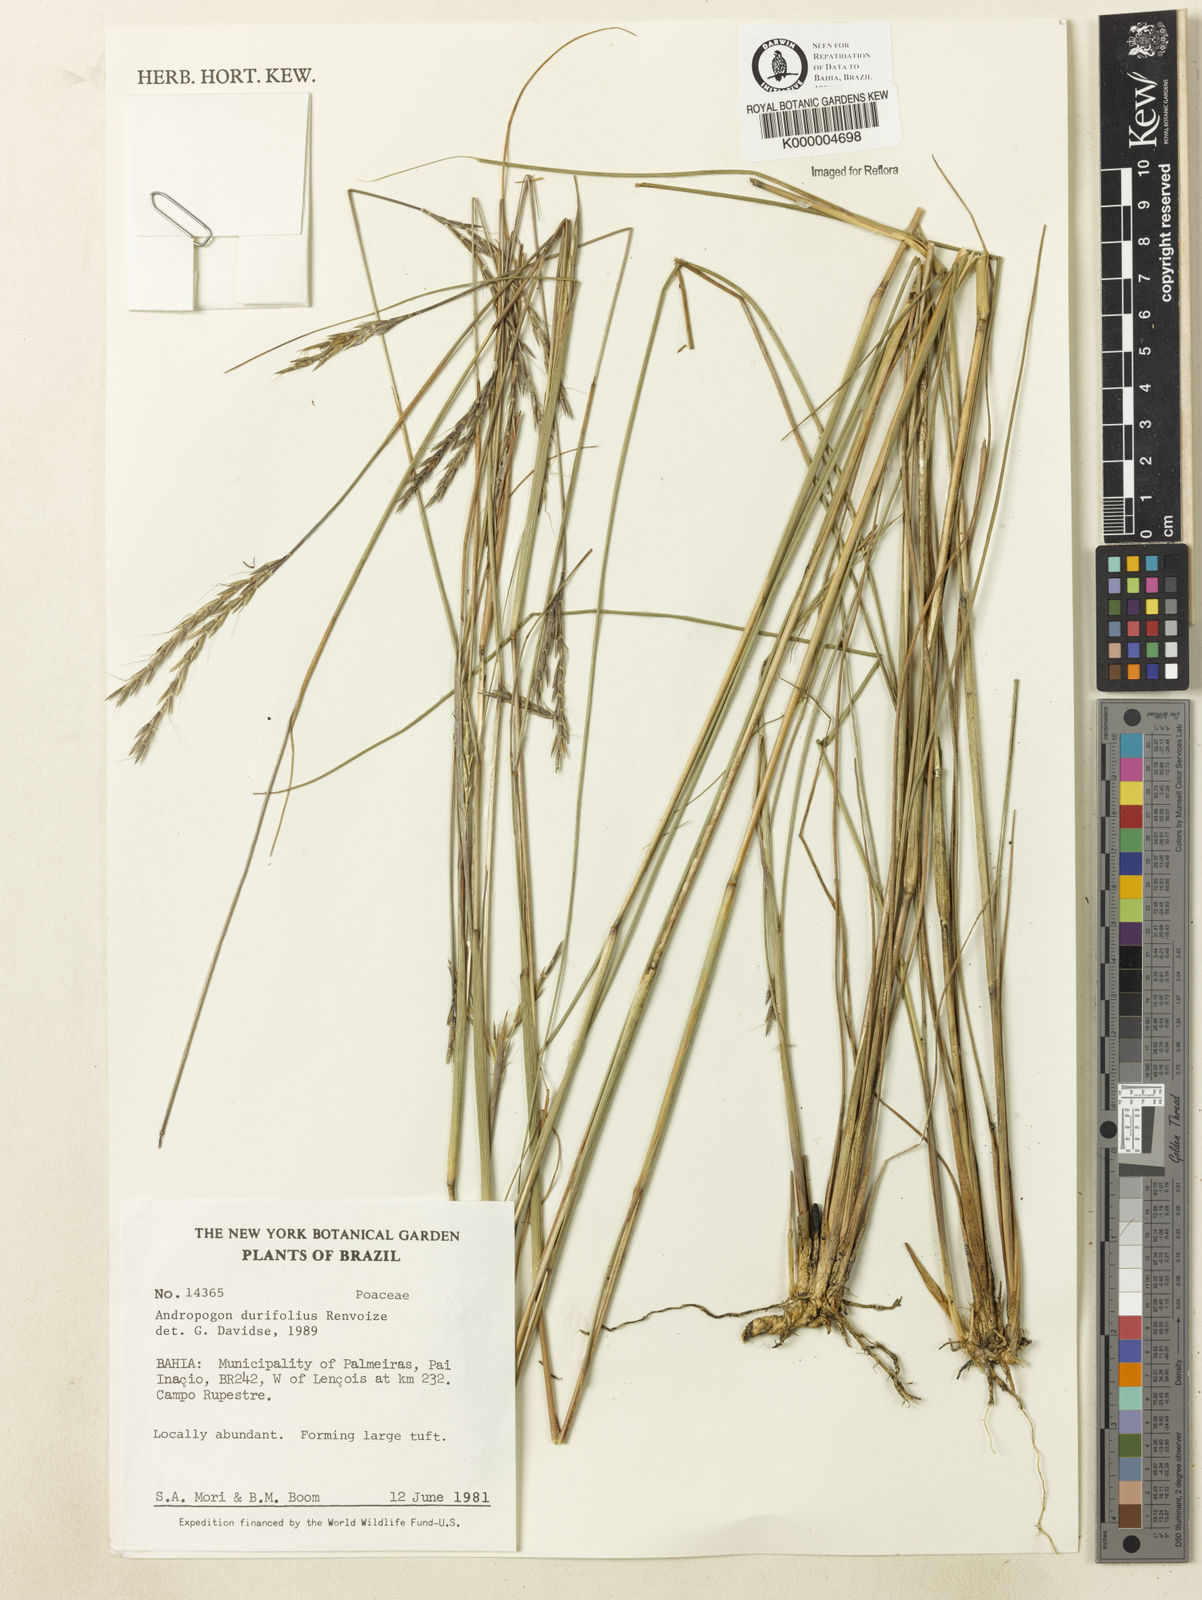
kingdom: Plantae
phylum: Tracheophyta
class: Liliopsida
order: Poales
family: Poaceae
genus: Andropogon
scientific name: Andropogon durifolius
